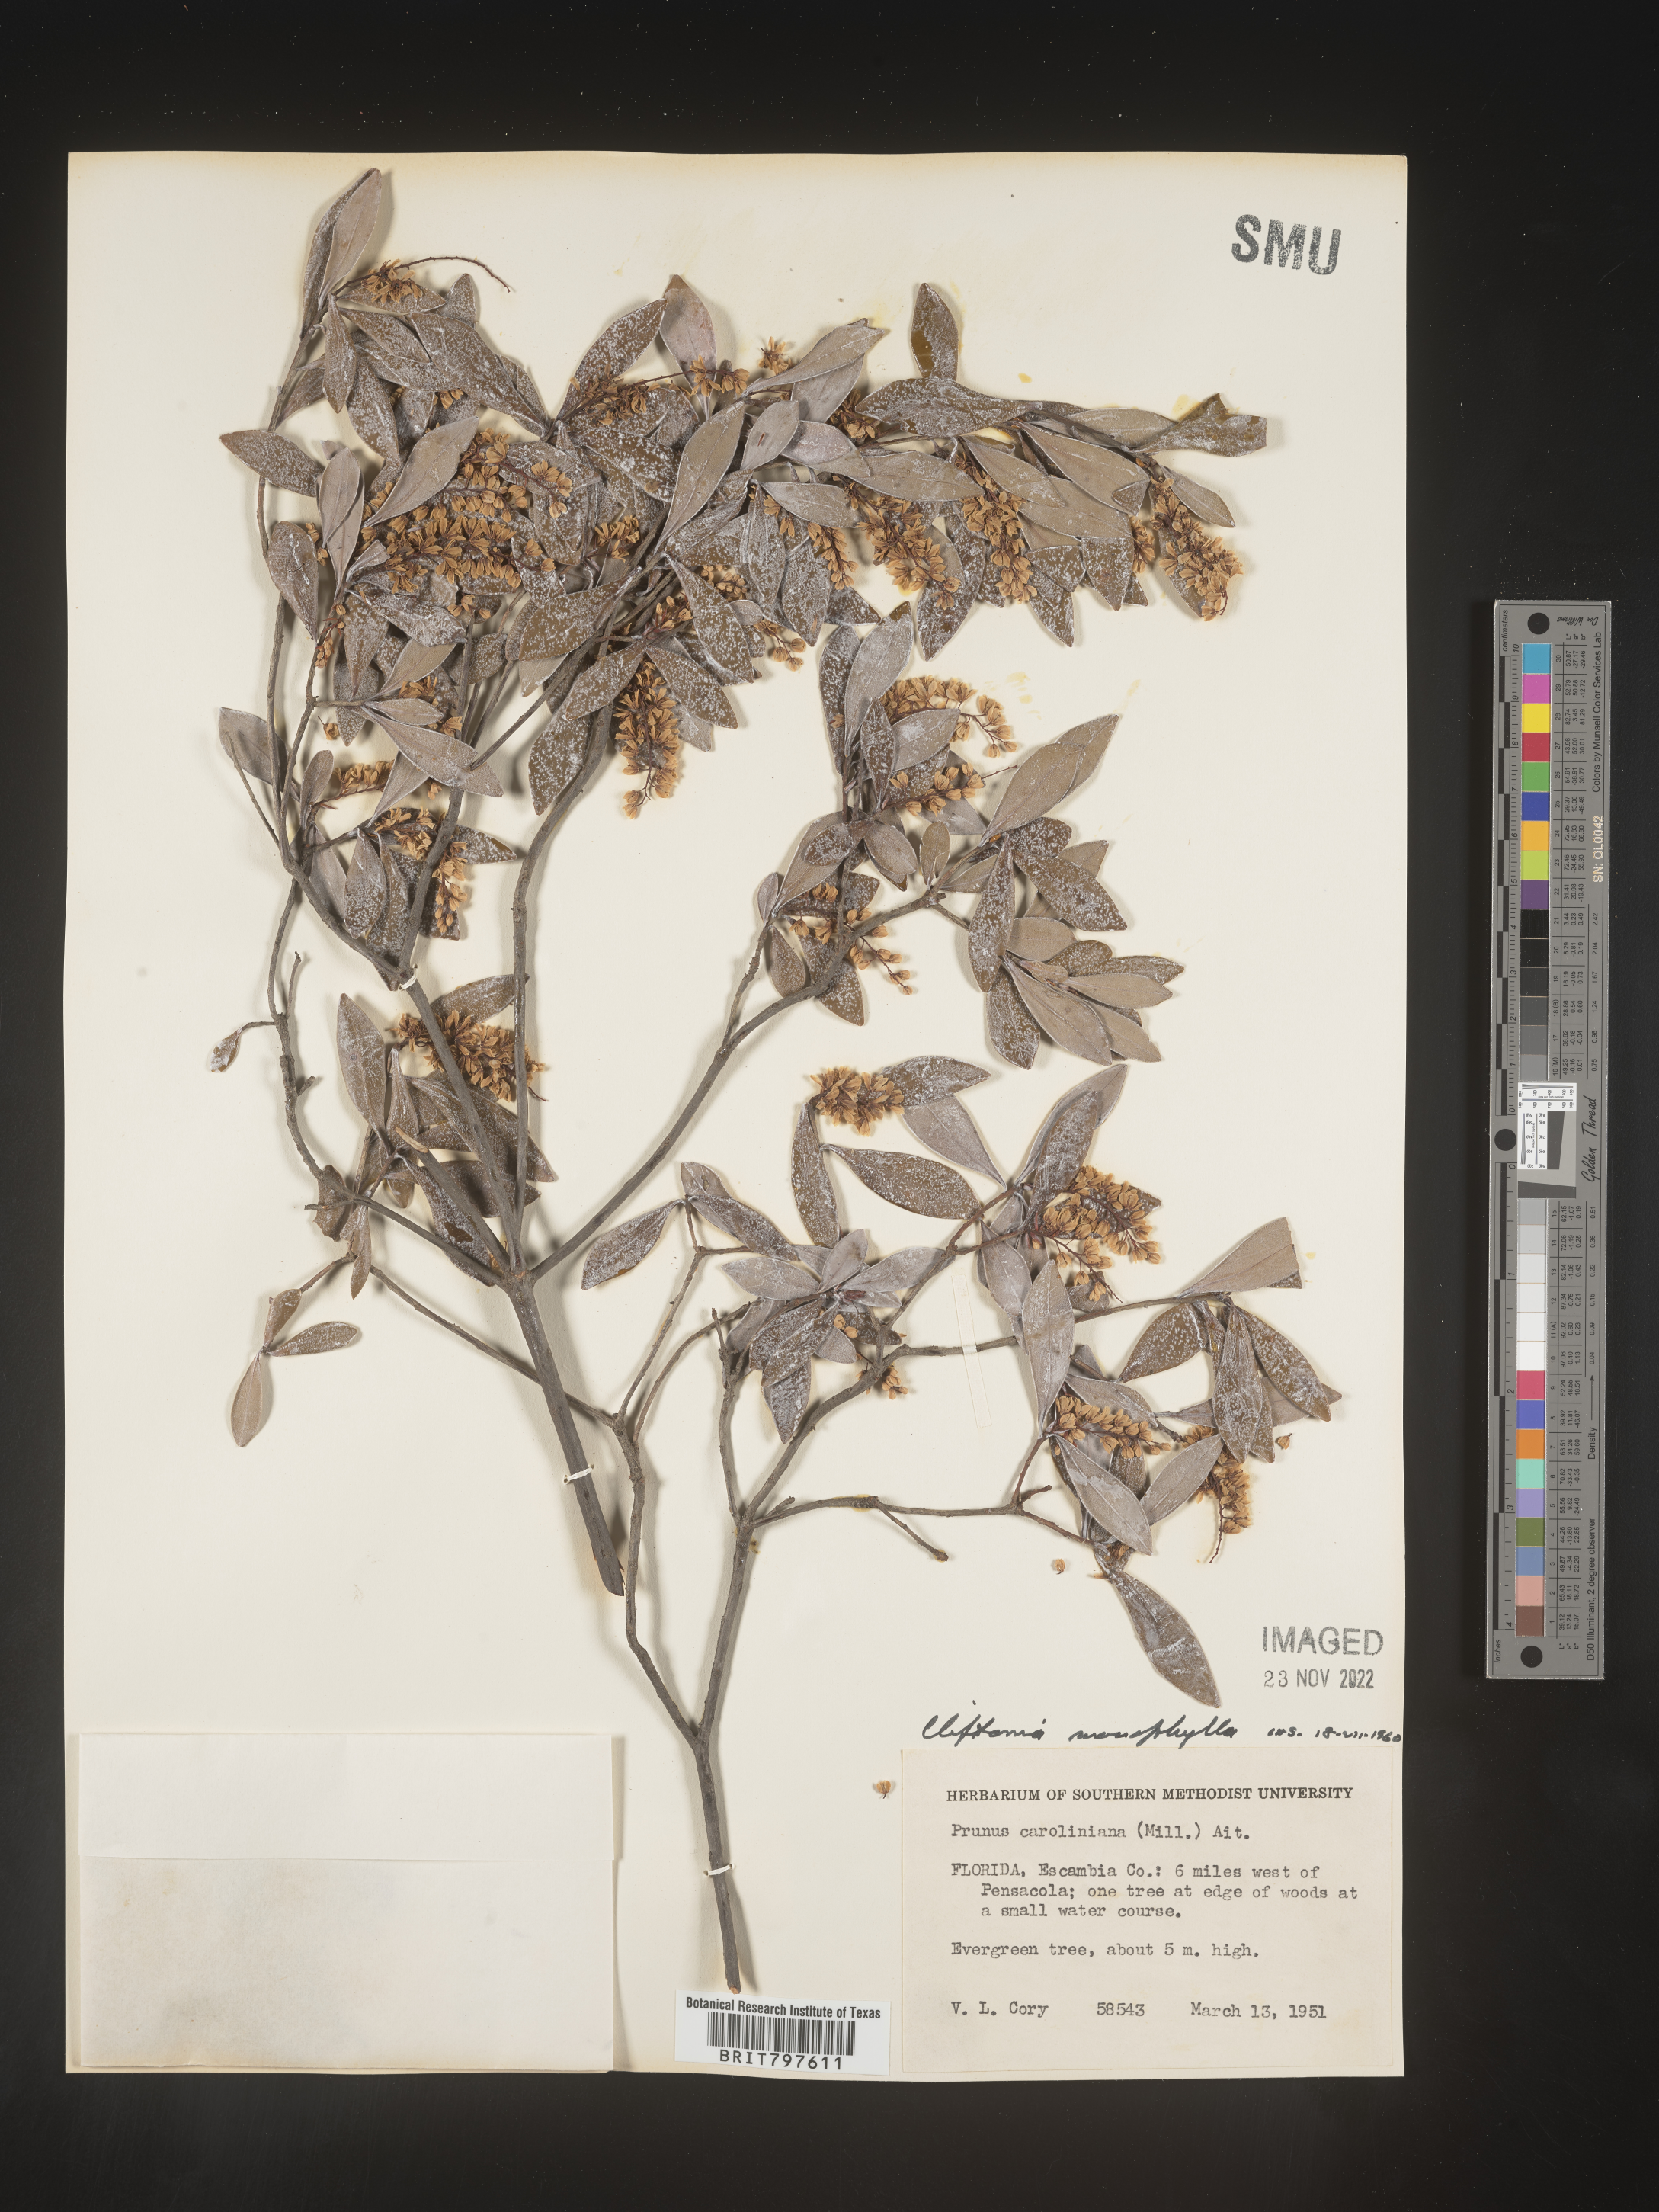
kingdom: Plantae
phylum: Tracheophyta
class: Magnoliopsida
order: Ericales
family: Cyrillaceae
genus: Cliftonia
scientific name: Cliftonia monophylla
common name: Titi
